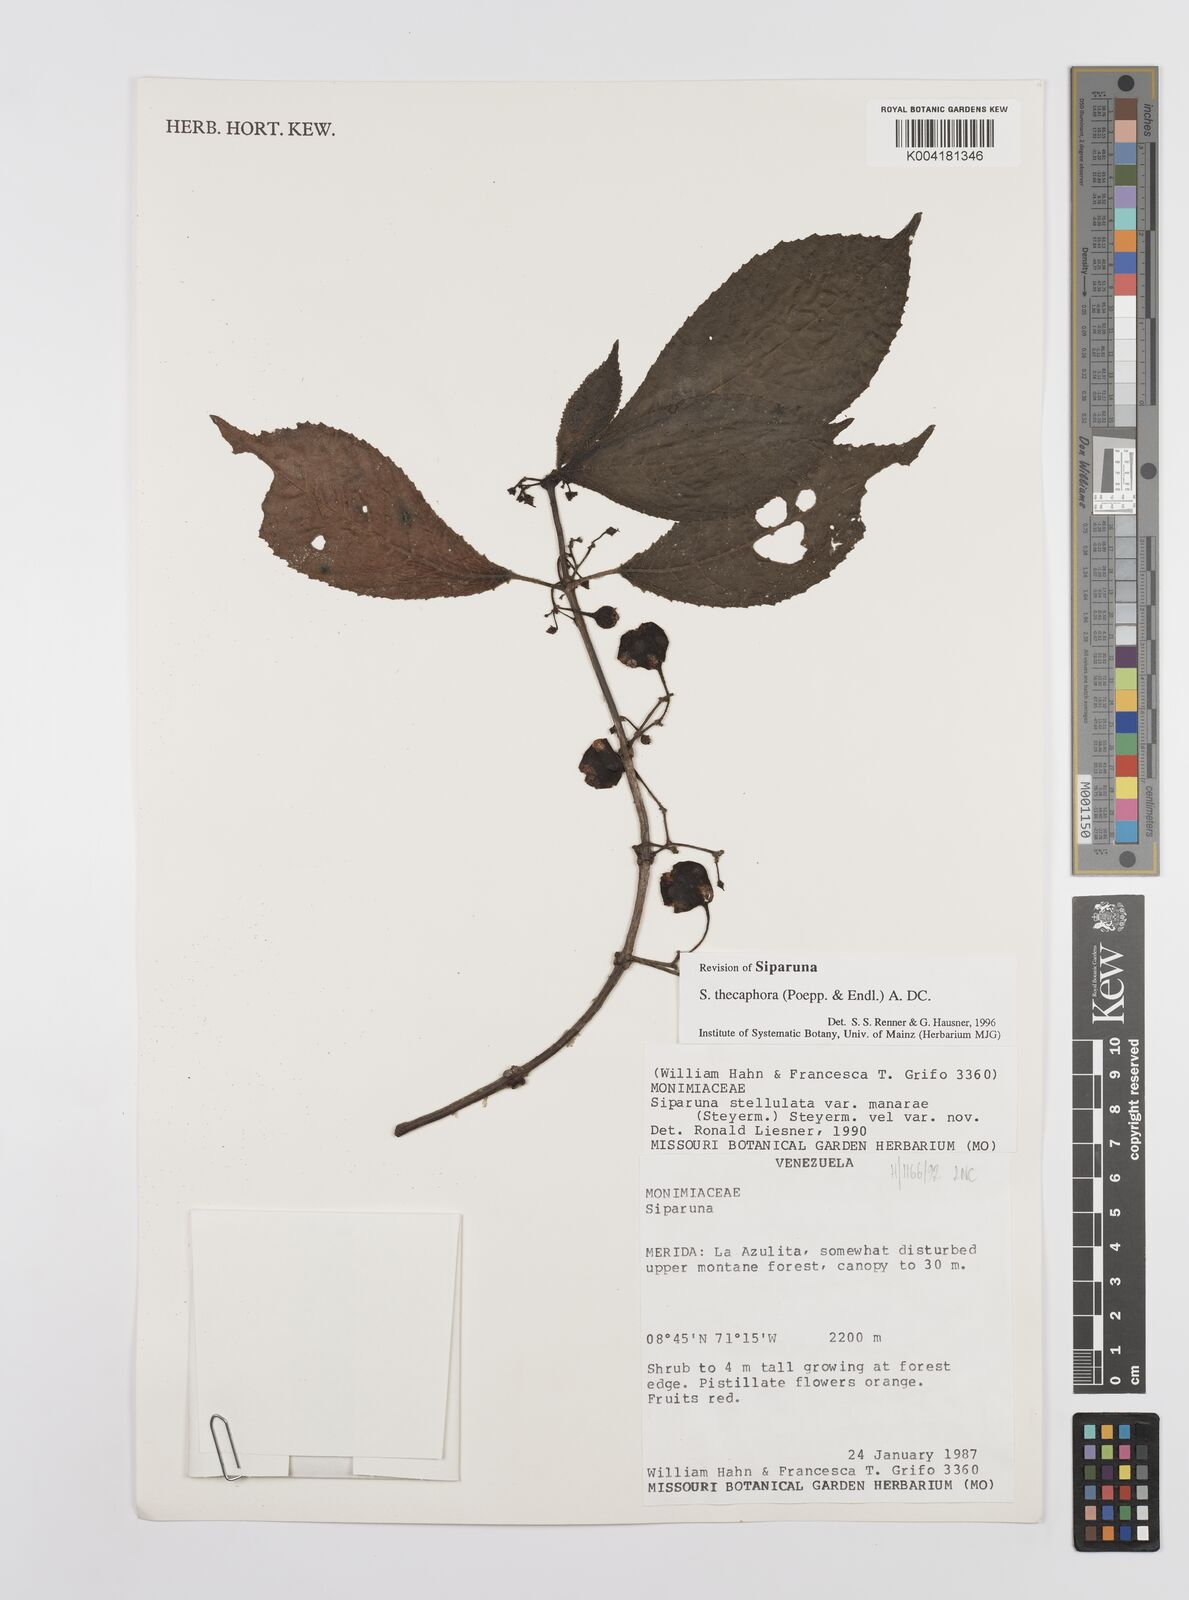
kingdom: Plantae
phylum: Tracheophyta
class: Magnoliopsida
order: Laurales
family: Siparunaceae
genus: Siparuna
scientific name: Siparuna thecaphora
